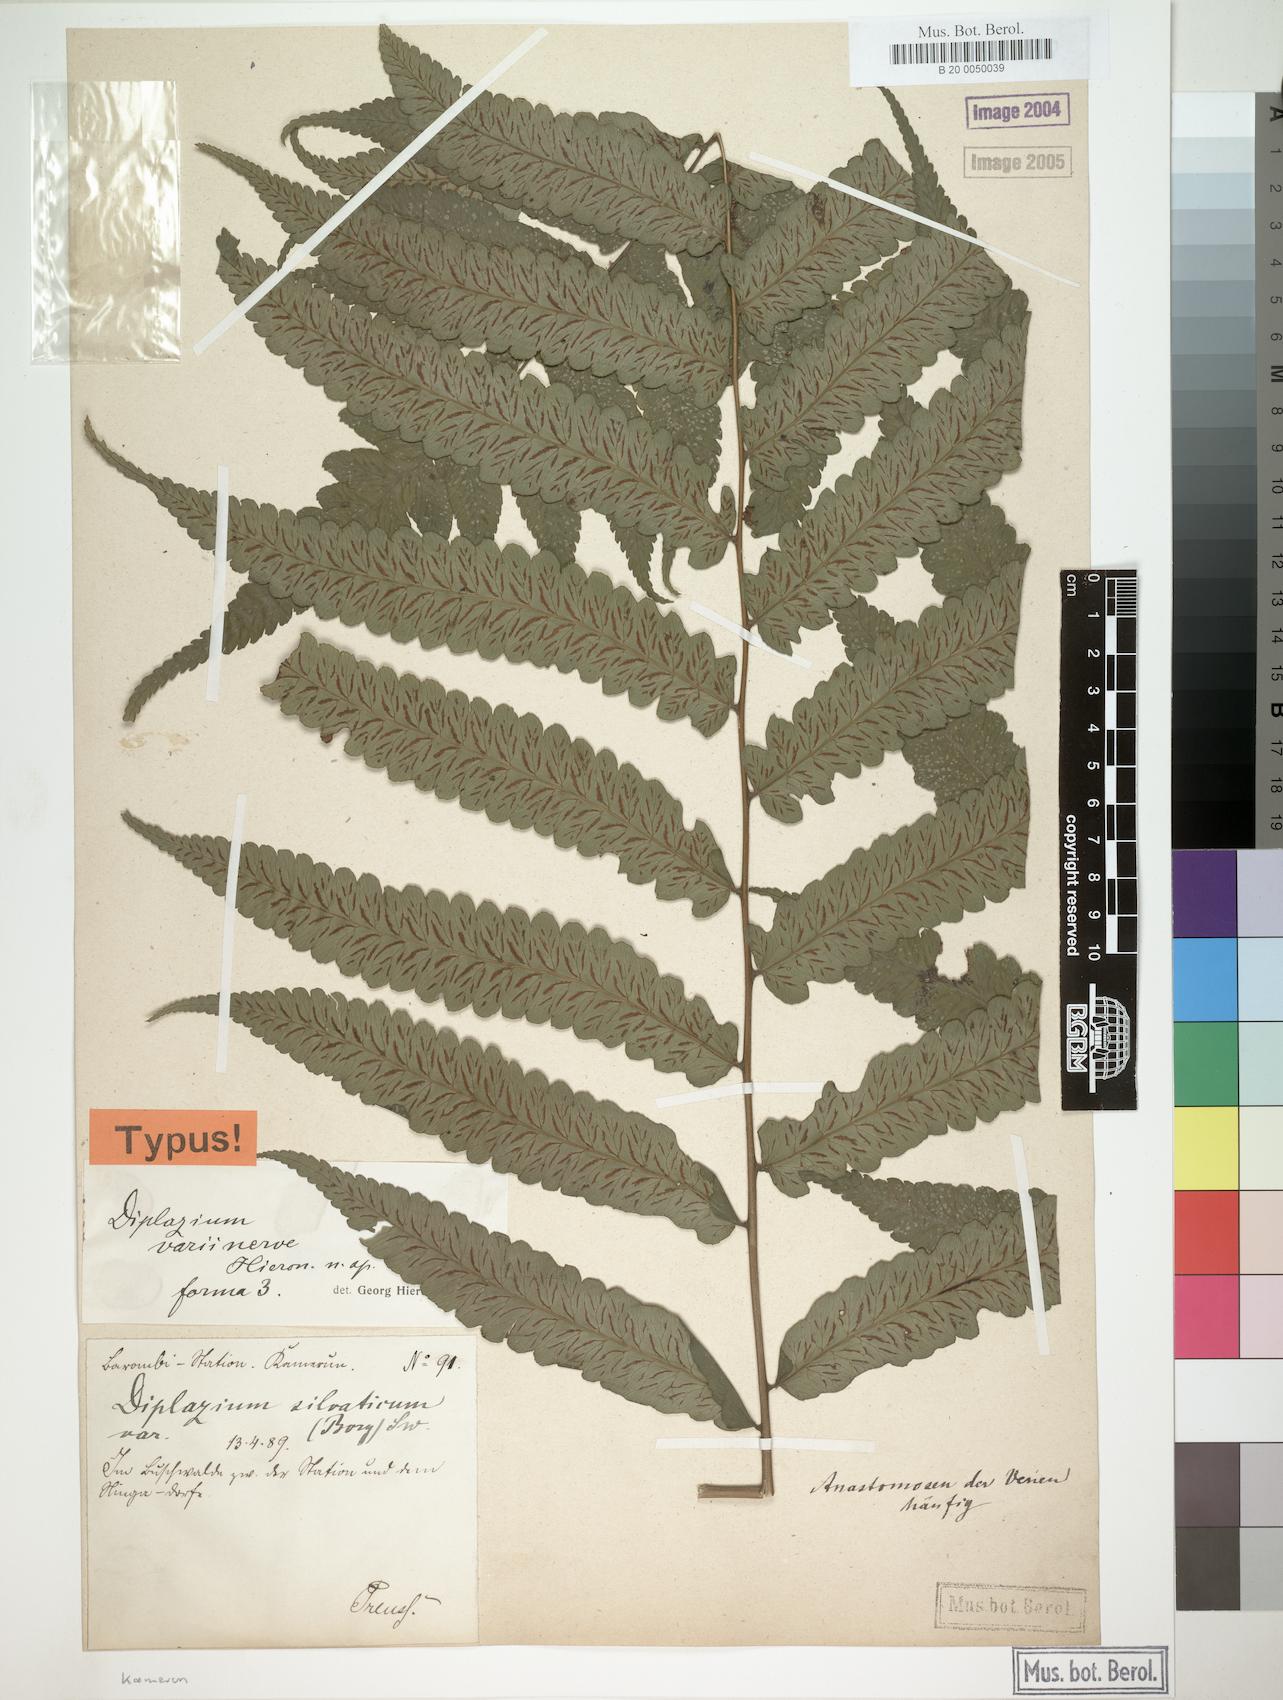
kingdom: Plantae
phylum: Tracheophyta
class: Polypodiopsida
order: Polypodiales
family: Athyriaceae
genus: Diplazium
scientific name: Diplazium welwitschii
